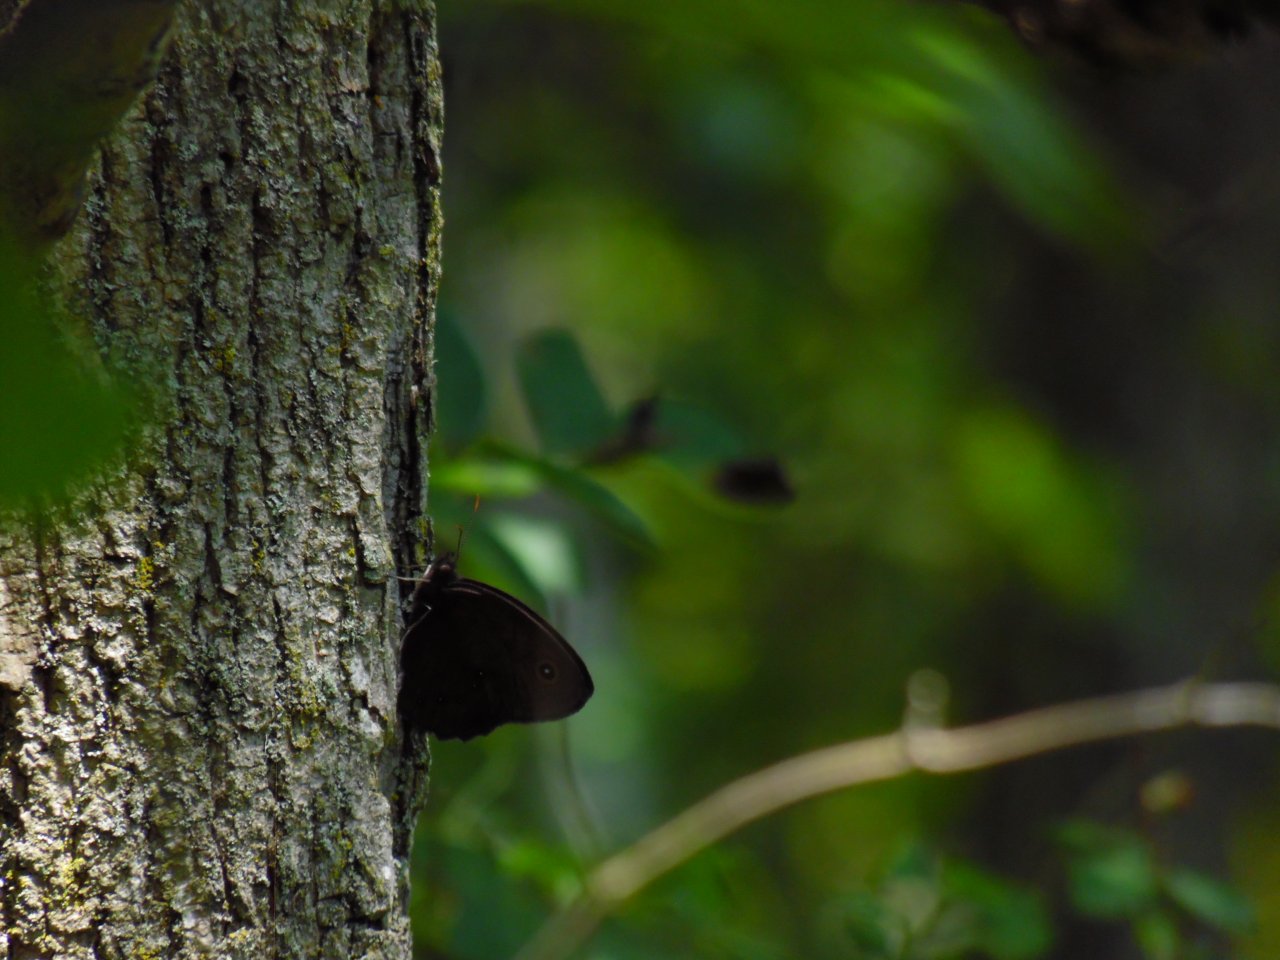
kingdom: Animalia
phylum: Arthropoda
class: Insecta
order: Lepidoptera
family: Nymphalidae
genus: Cercyonis
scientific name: Cercyonis pegala
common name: Common Wood-Nymph
